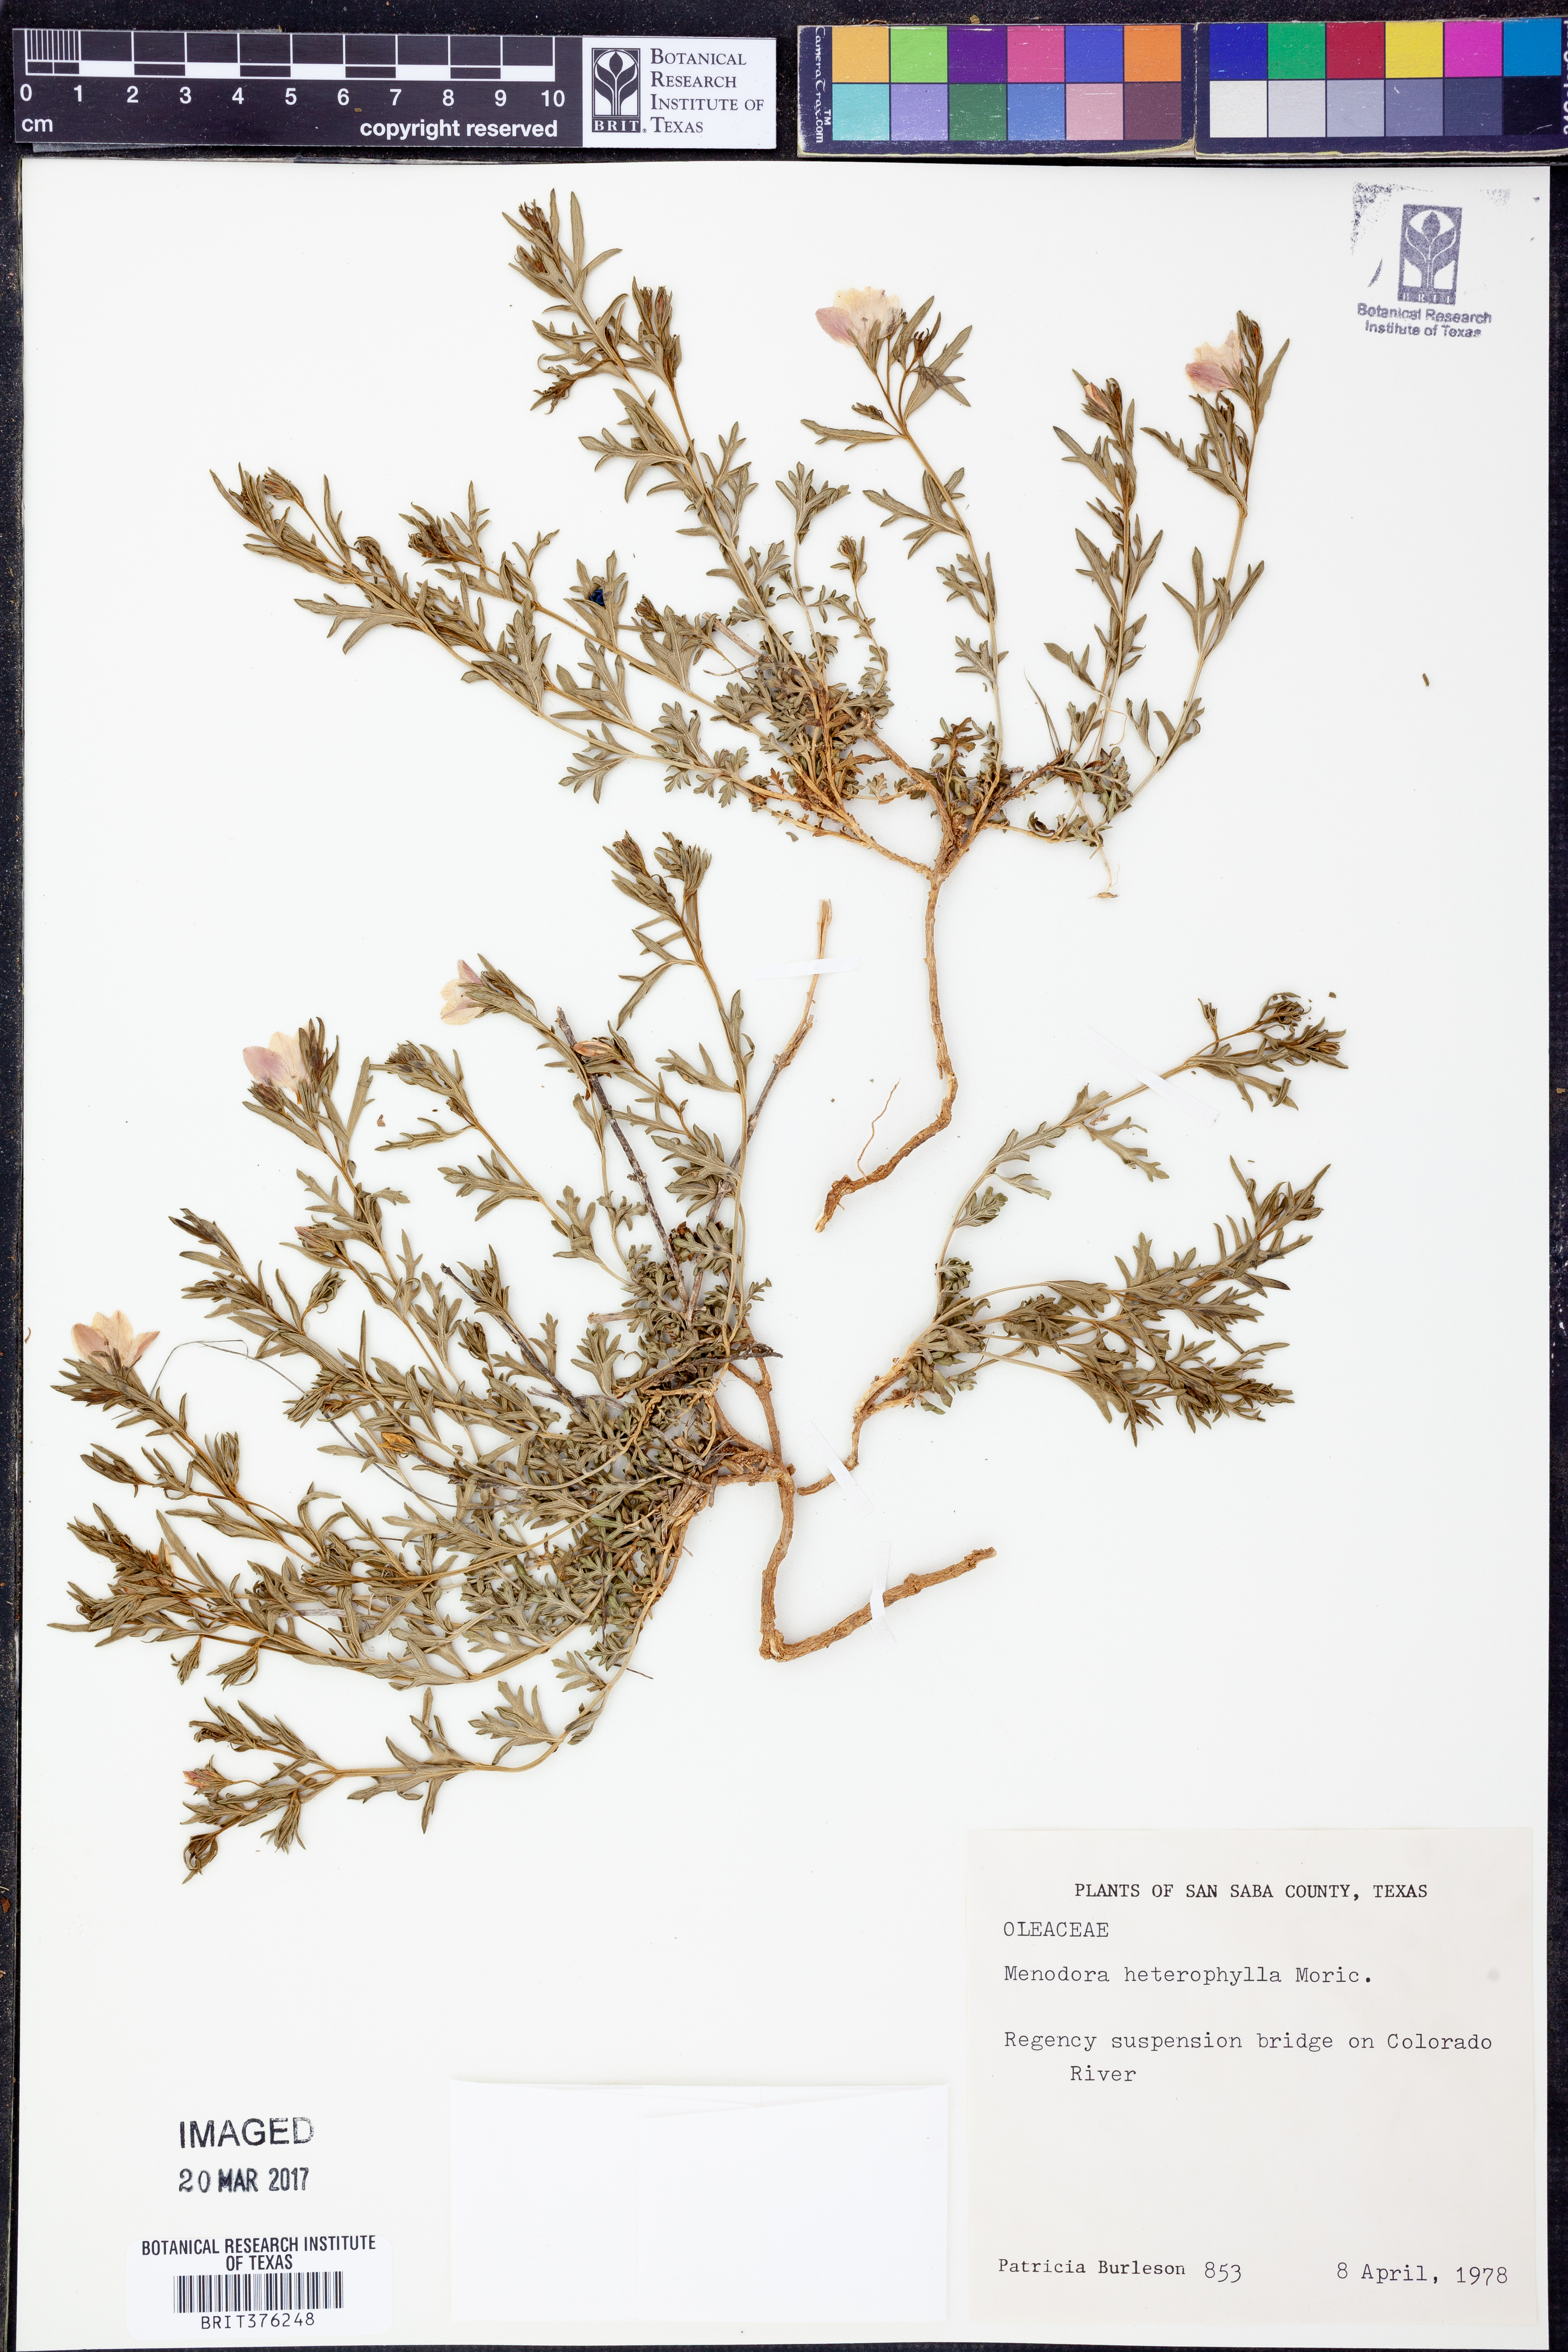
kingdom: Plantae
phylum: Tracheophyta
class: Magnoliopsida
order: Lamiales
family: Oleaceae
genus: Menodora
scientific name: Menodora heterophylla
